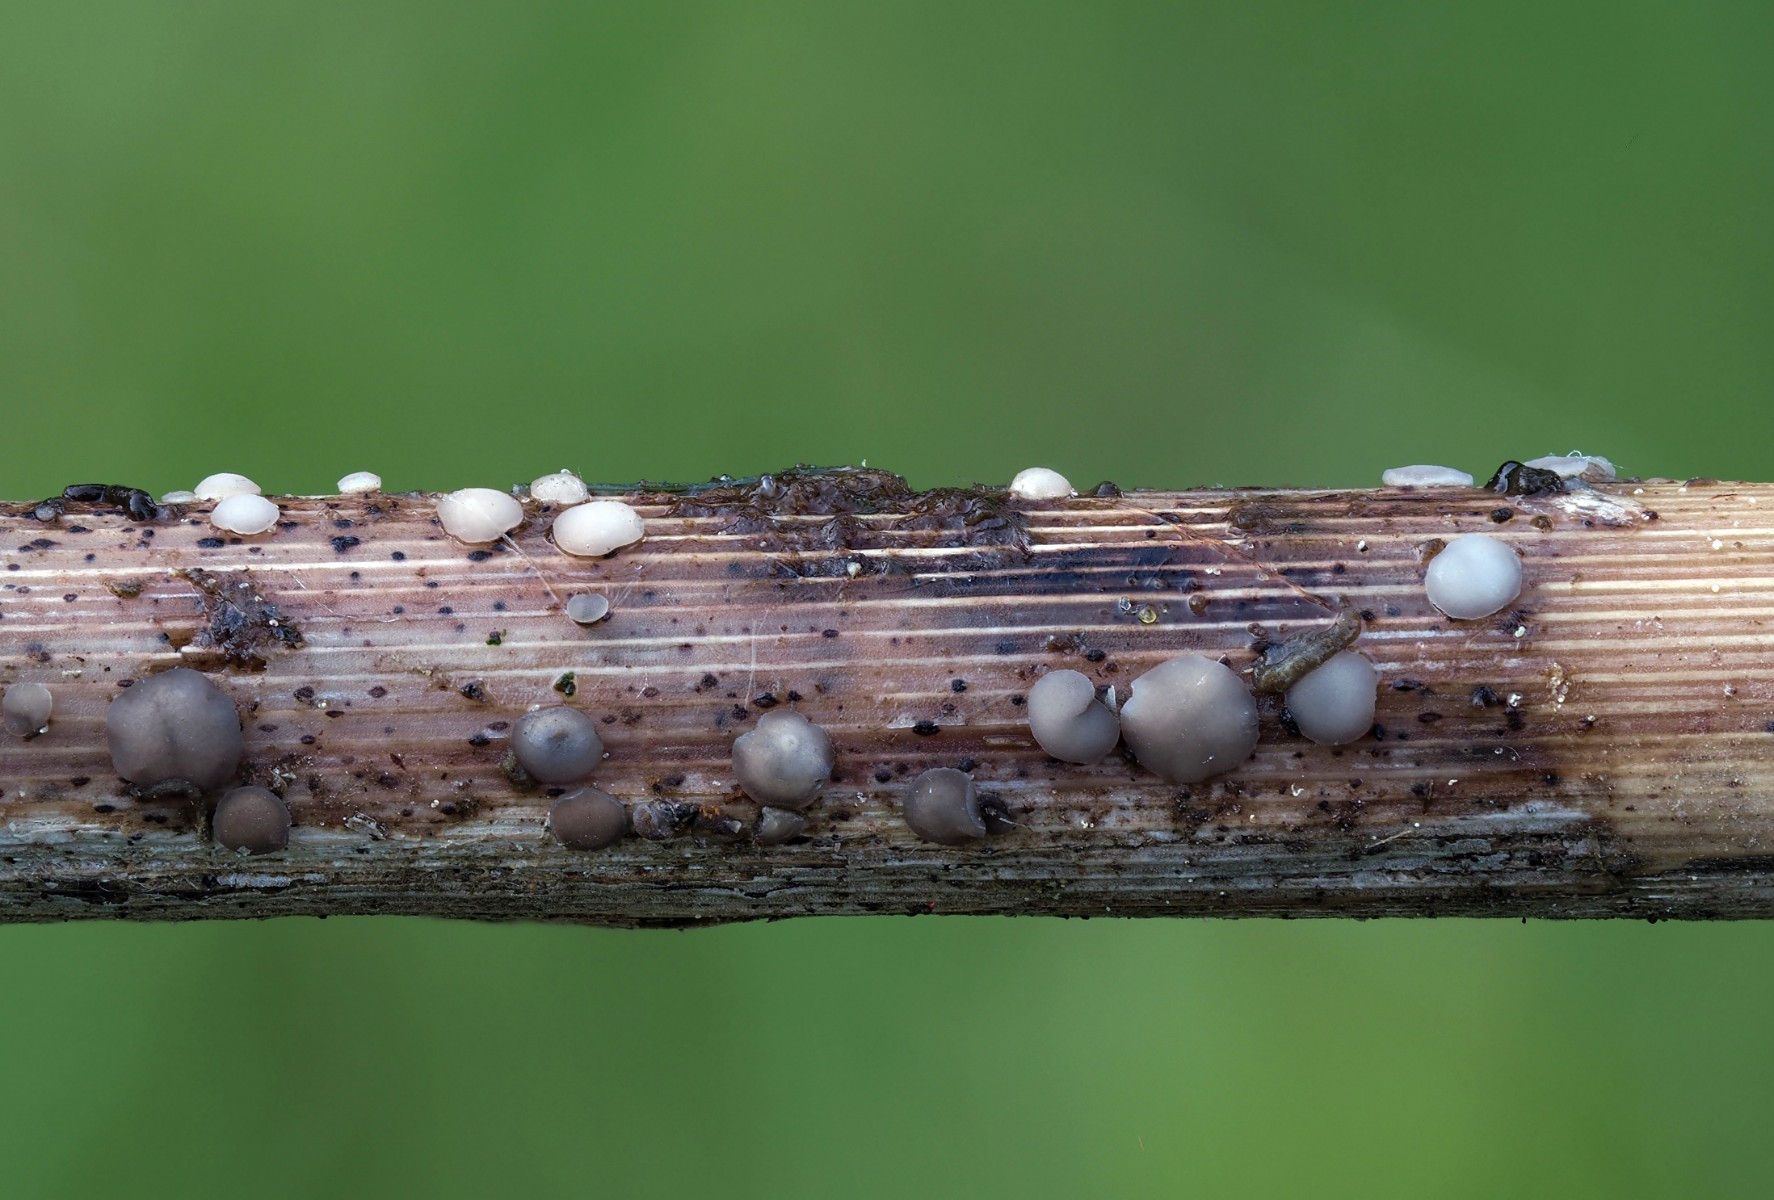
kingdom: Fungi
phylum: Ascomycota
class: Leotiomycetes
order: Helotiales
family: Mollisiaceae
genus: Mollisia
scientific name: Mollisia
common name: gråskive
